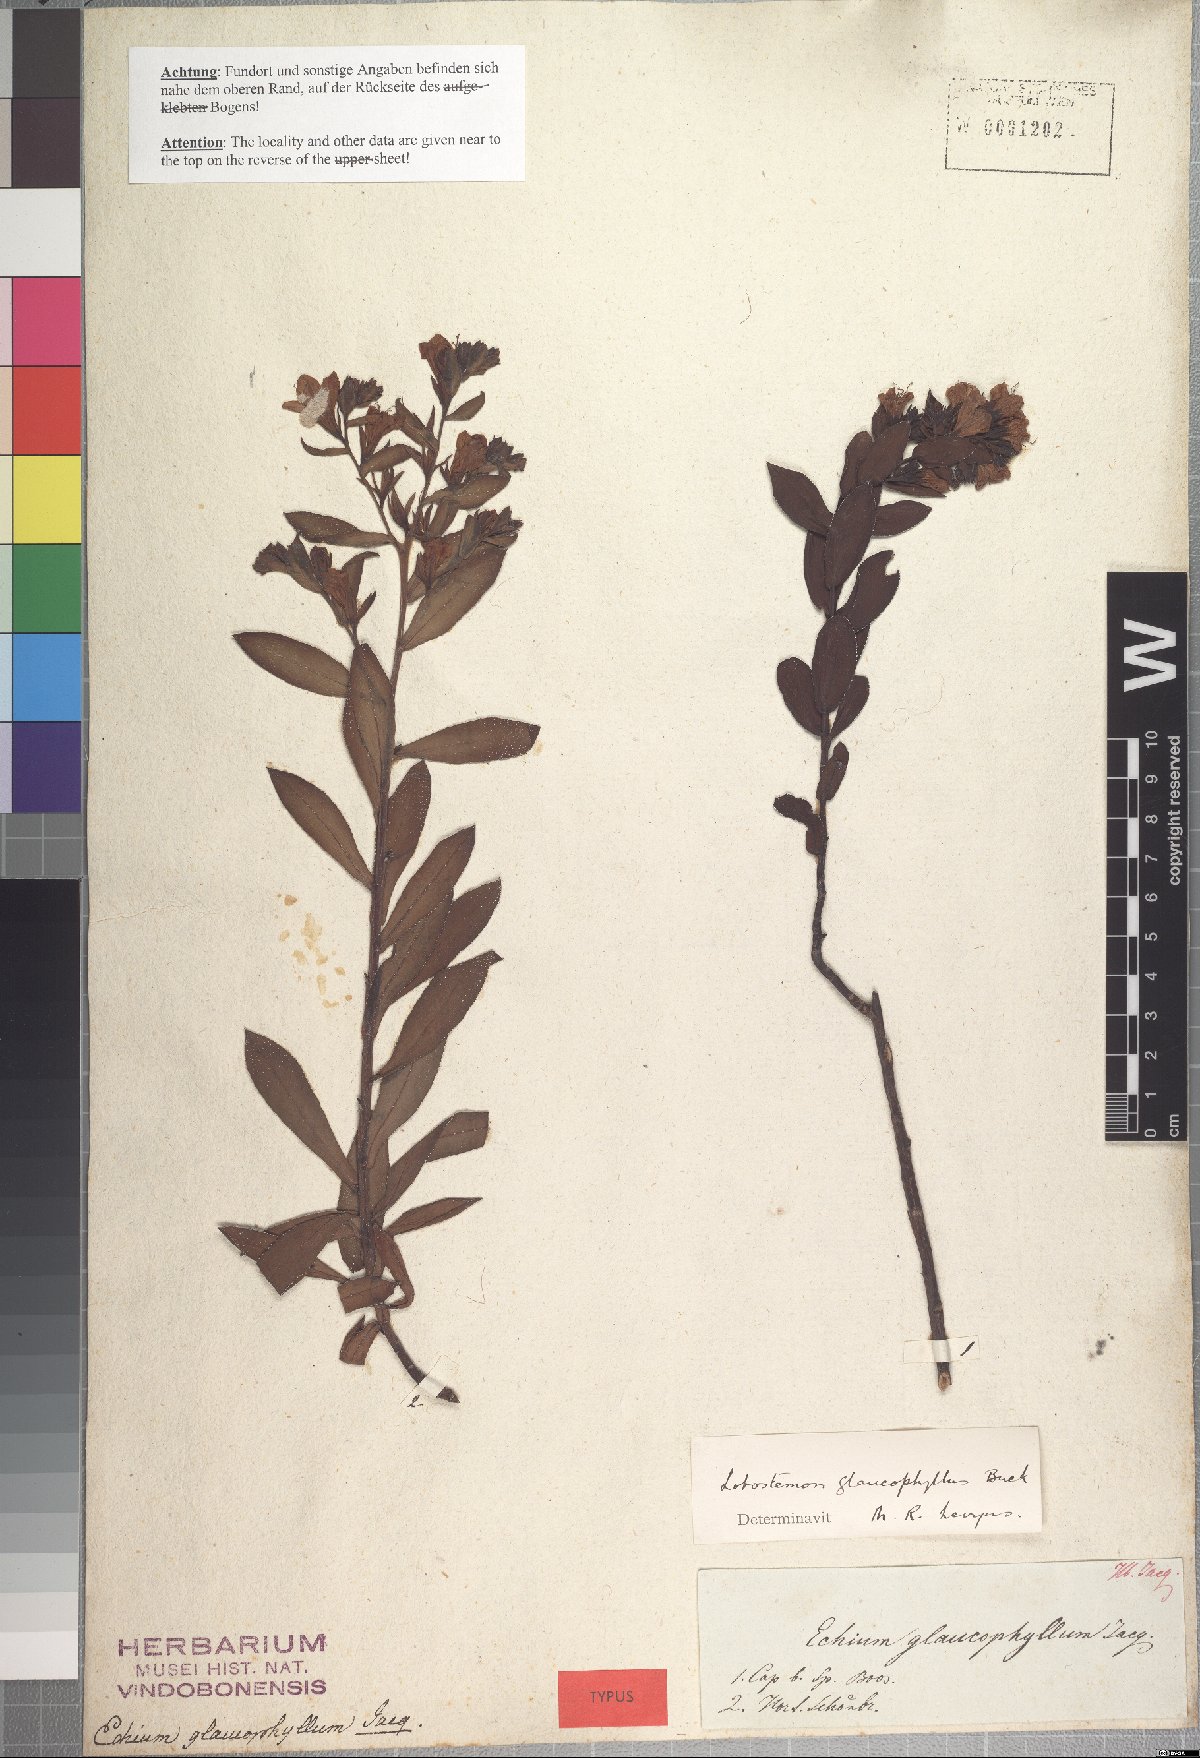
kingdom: Plantae
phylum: Tracheophyta
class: Magnoliopsida
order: Boraginales
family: Boraginaceae
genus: Lobostemon
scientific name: Lobostemon glaucophyllus
